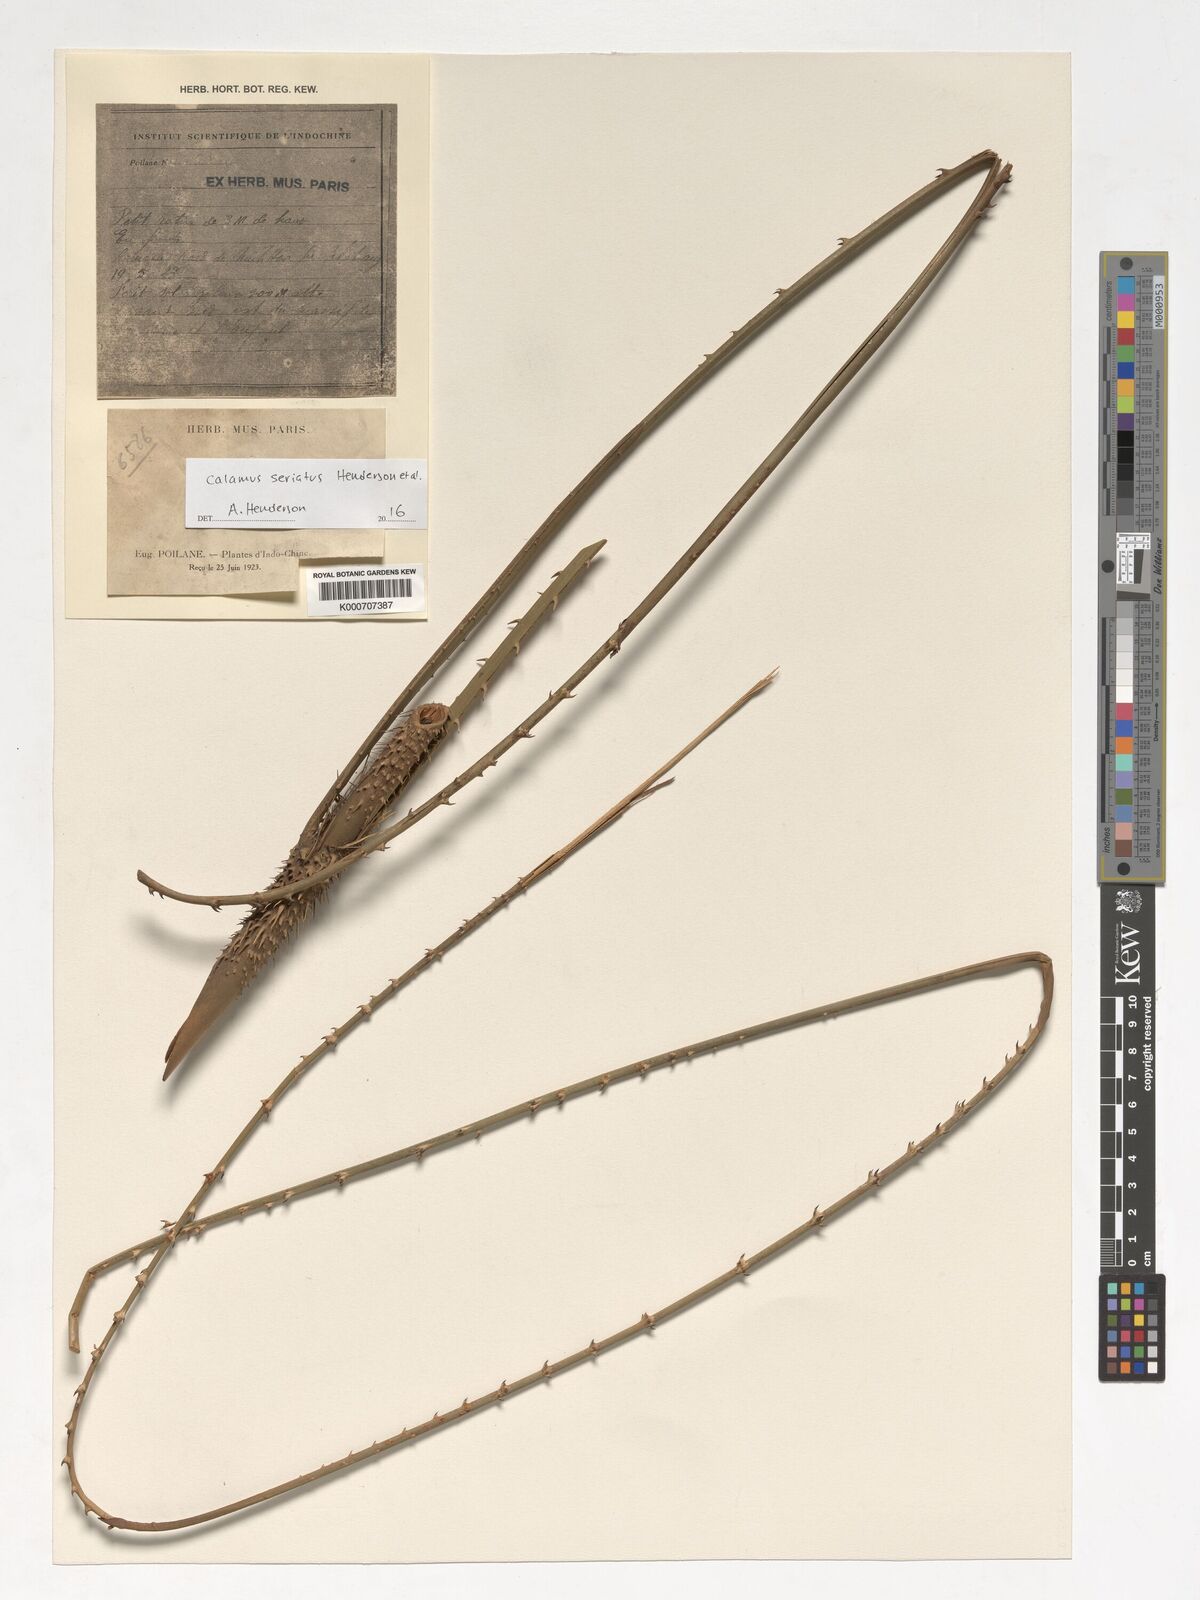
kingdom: Plantae
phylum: Tracheophyta
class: Liliopsida
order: Arecales
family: Arecaceae
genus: Calamus
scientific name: Calamus seriatus
